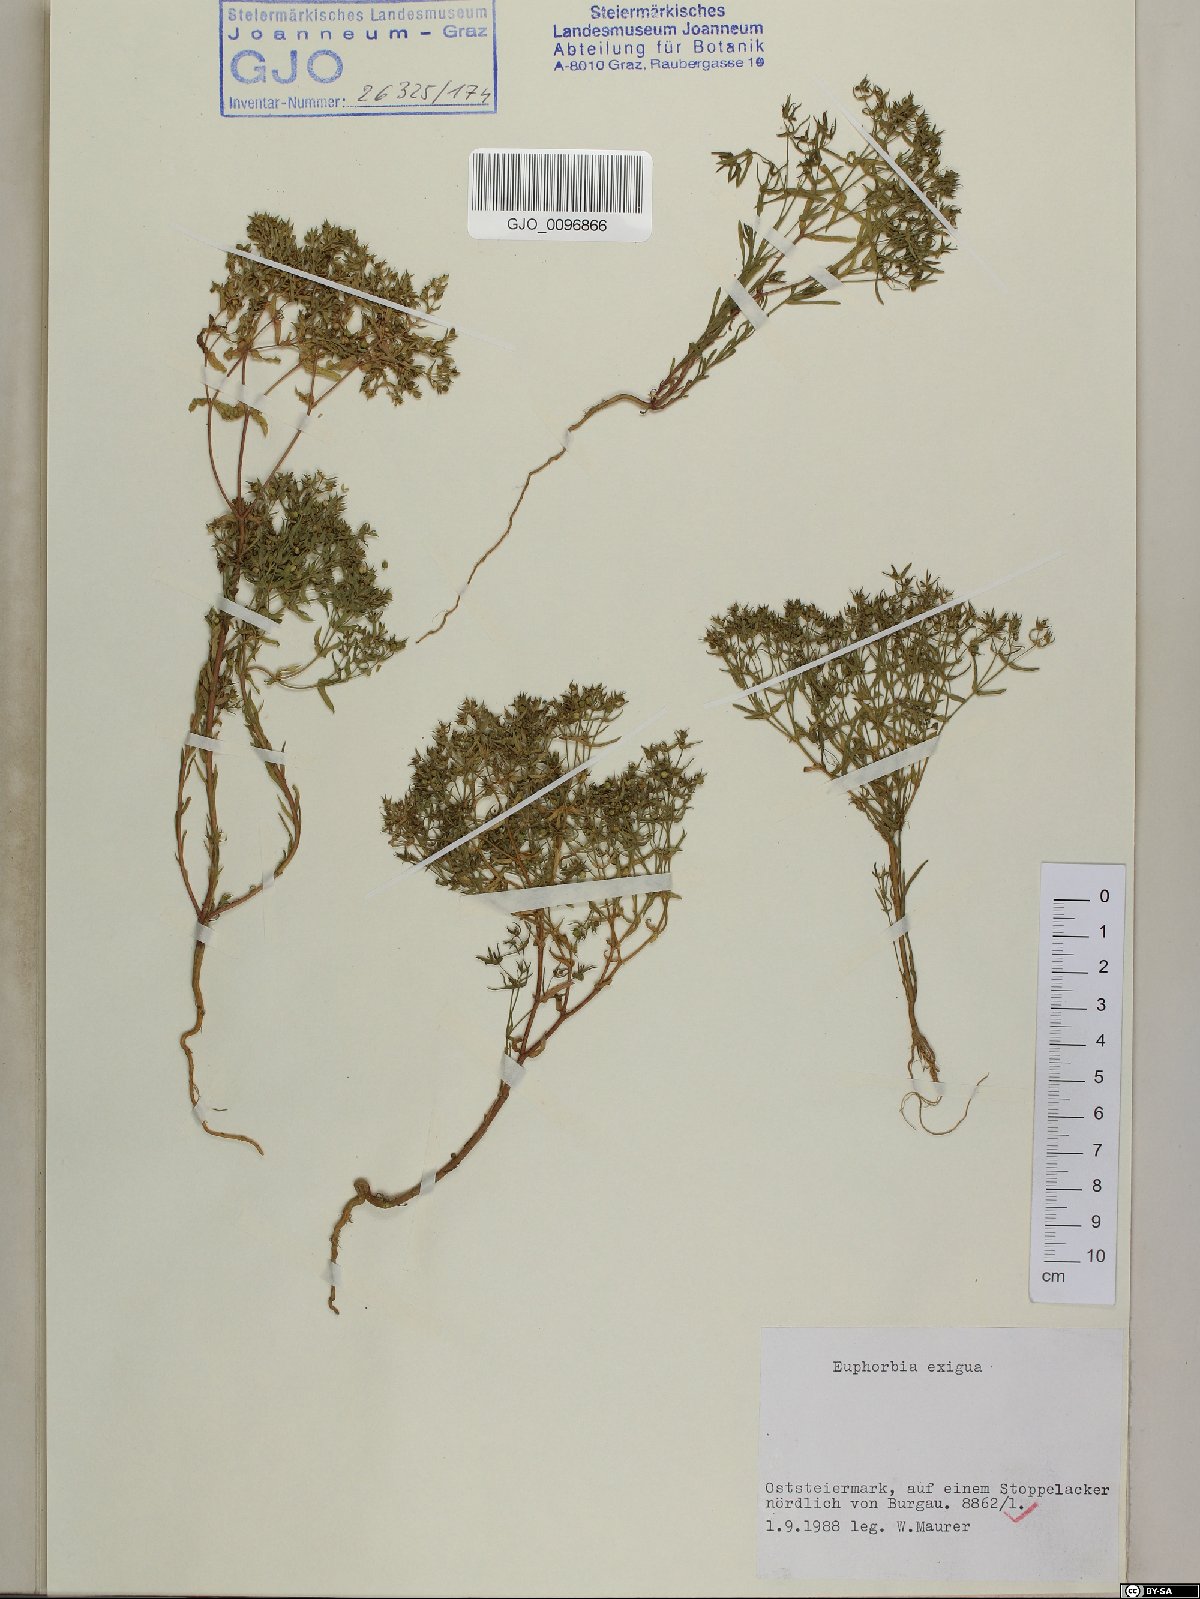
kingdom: Plantae
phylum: Tracheophyta
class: Magnoliopsida
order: Malpighiales
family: Euphorbiaceae
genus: Euphorbia
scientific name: Euphorbia exigua
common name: Dwarf spurge
